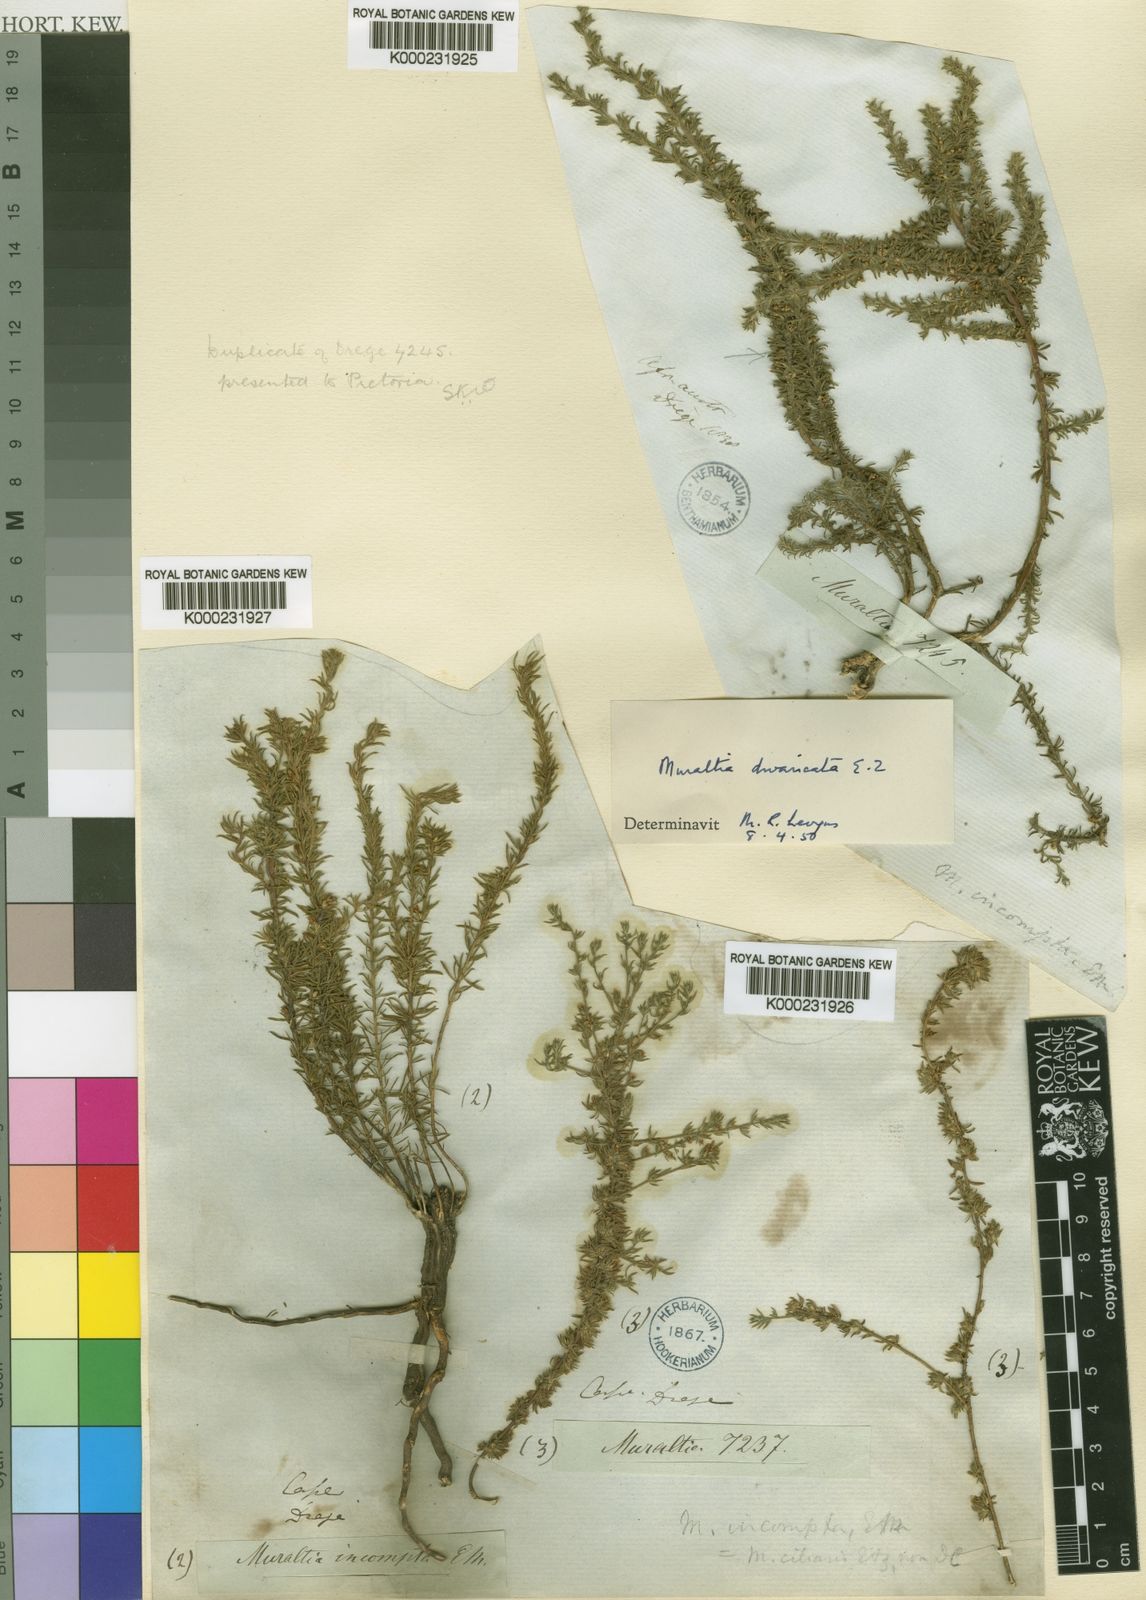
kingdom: Plantae
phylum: Tracheophyta
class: Magnoliopsida
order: Fabales
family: Polygalaceae
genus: Muraltia
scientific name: Muraltia divaricata
